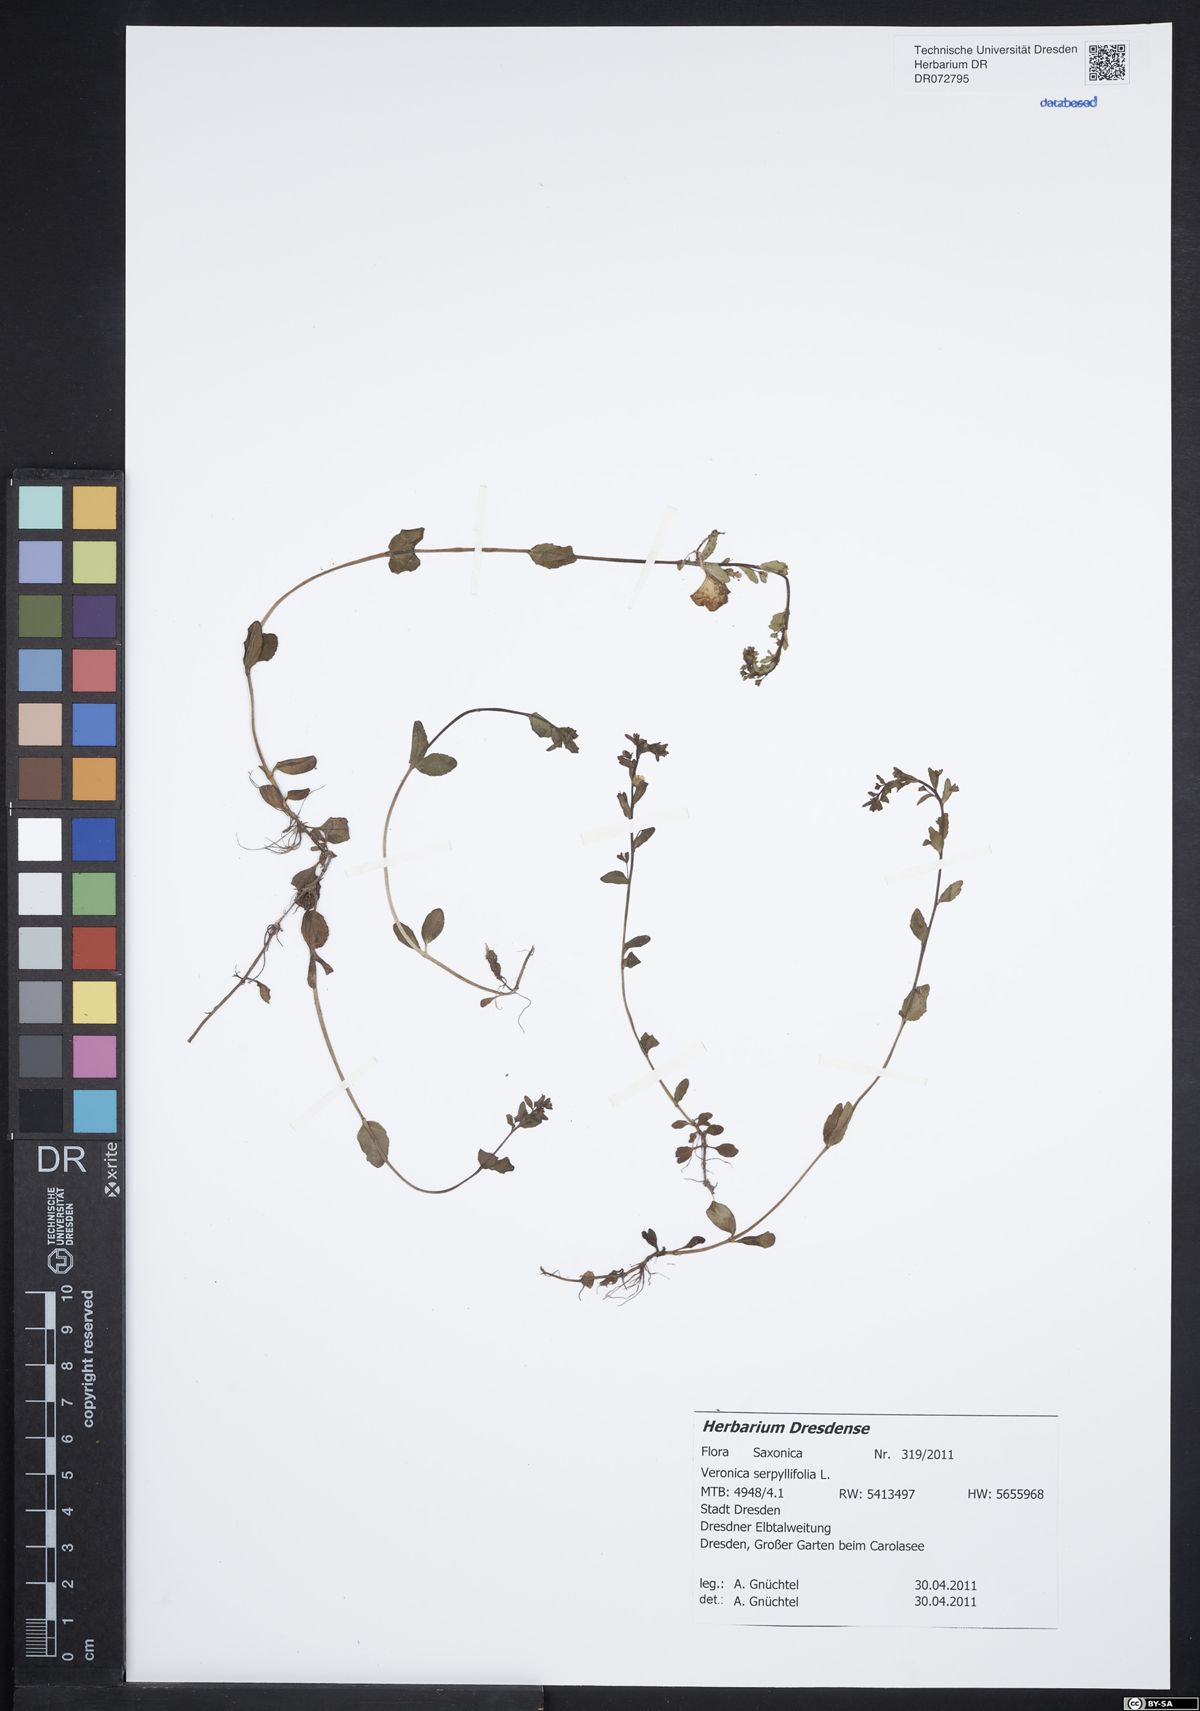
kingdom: Plantae
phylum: Tracheophyta
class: Magnoliopsida
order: Lamiales
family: Plantaginaceae
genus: Veronica
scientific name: Veronica serpyllifolia
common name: Thyme-leaved speedwell
